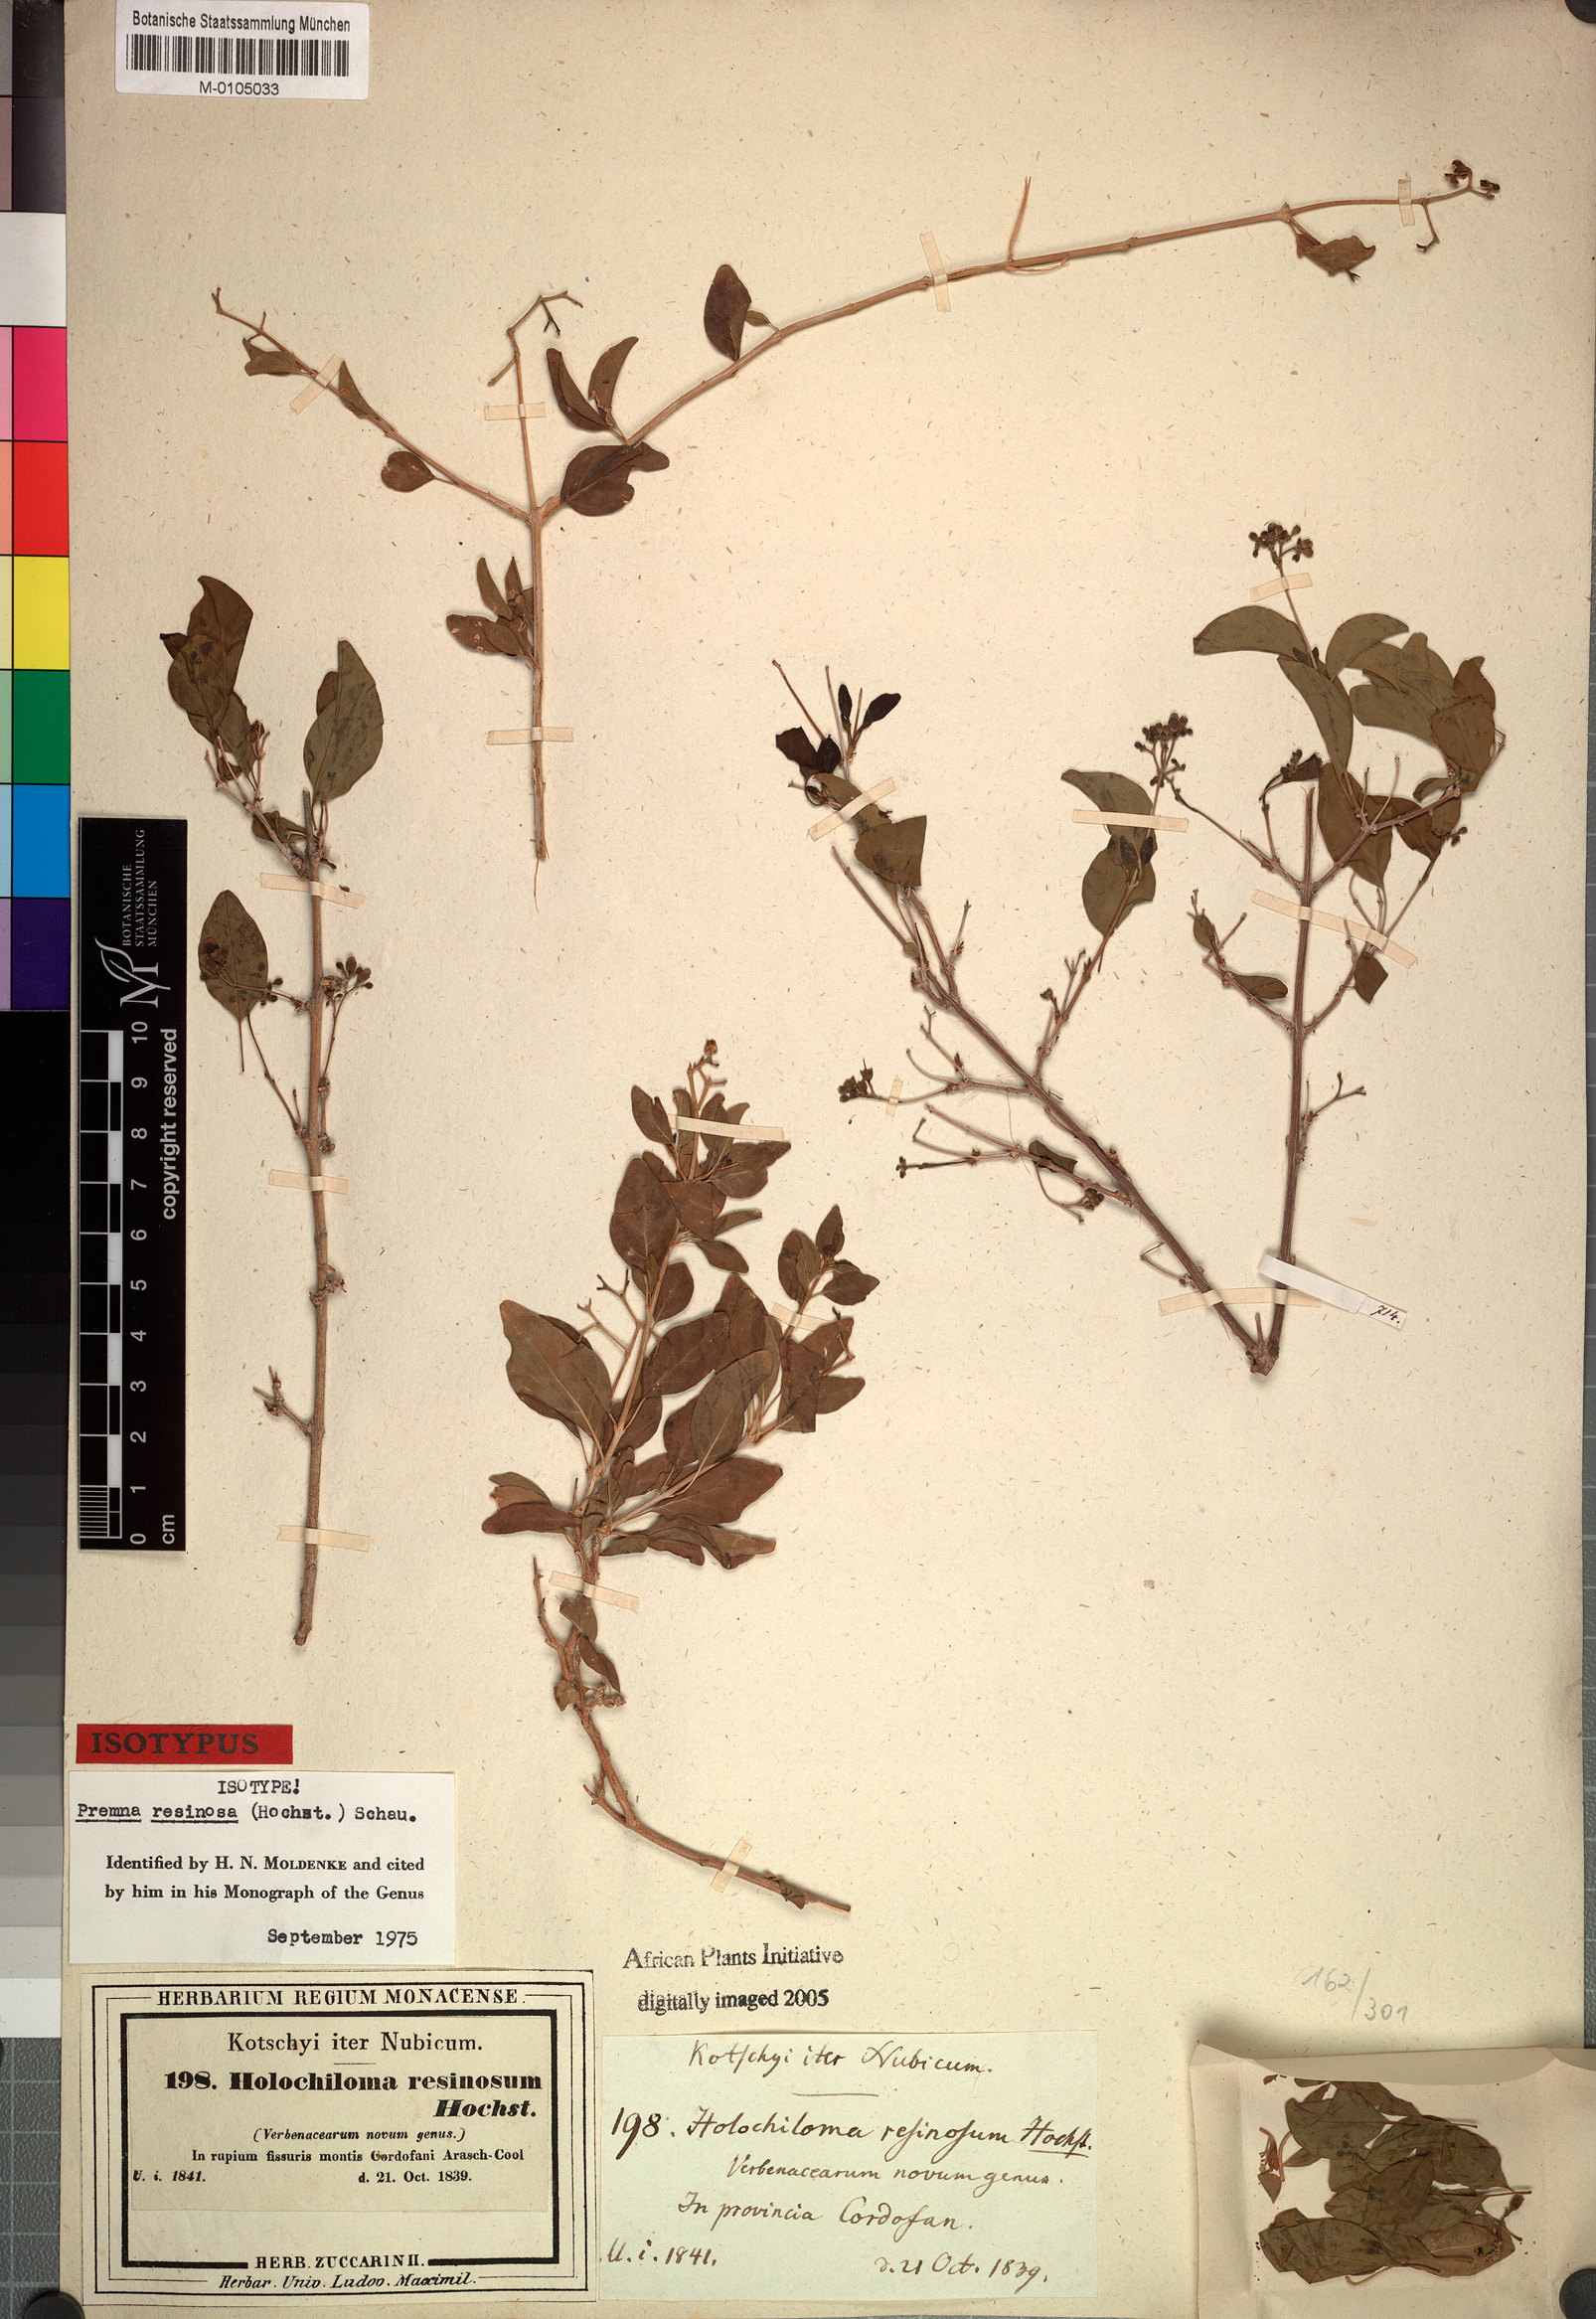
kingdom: Plantae
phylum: Tracheophyta
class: Magnoliopsida
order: Lamiales
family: Lamiaceae
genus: Premna
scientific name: Premna resinosa
